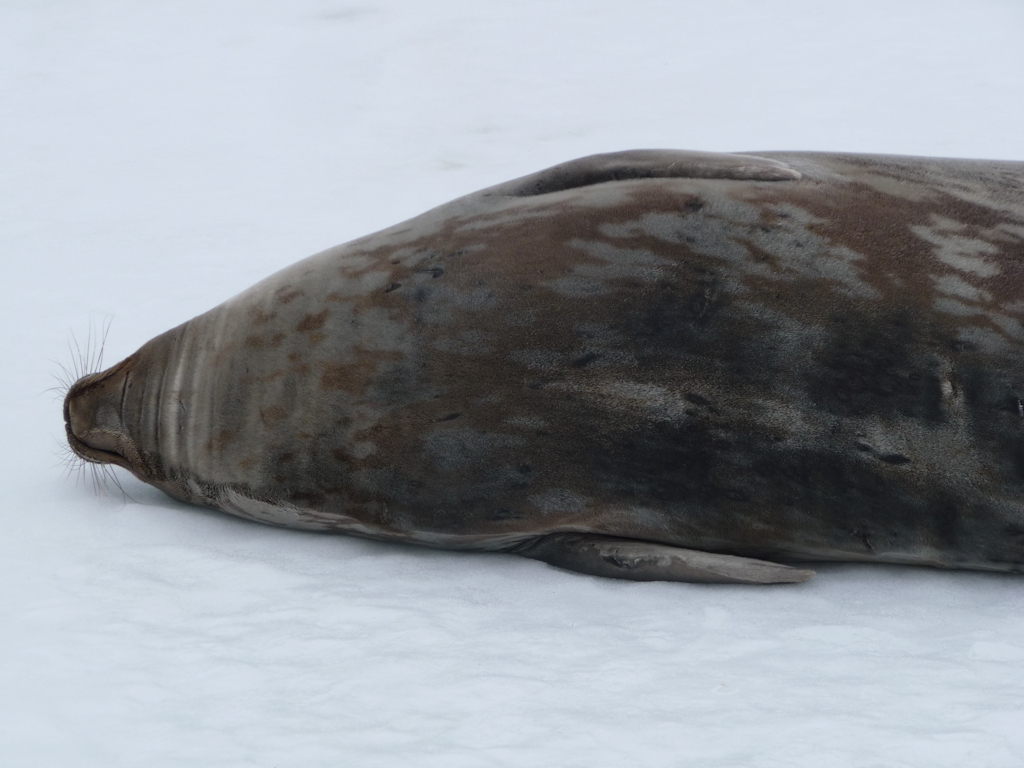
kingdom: Animalia
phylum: Chordata
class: Mammalia
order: Carnivora
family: Phocidae
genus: Leptonychotes
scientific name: Leptonychotes weddellii
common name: Weddell Seal
